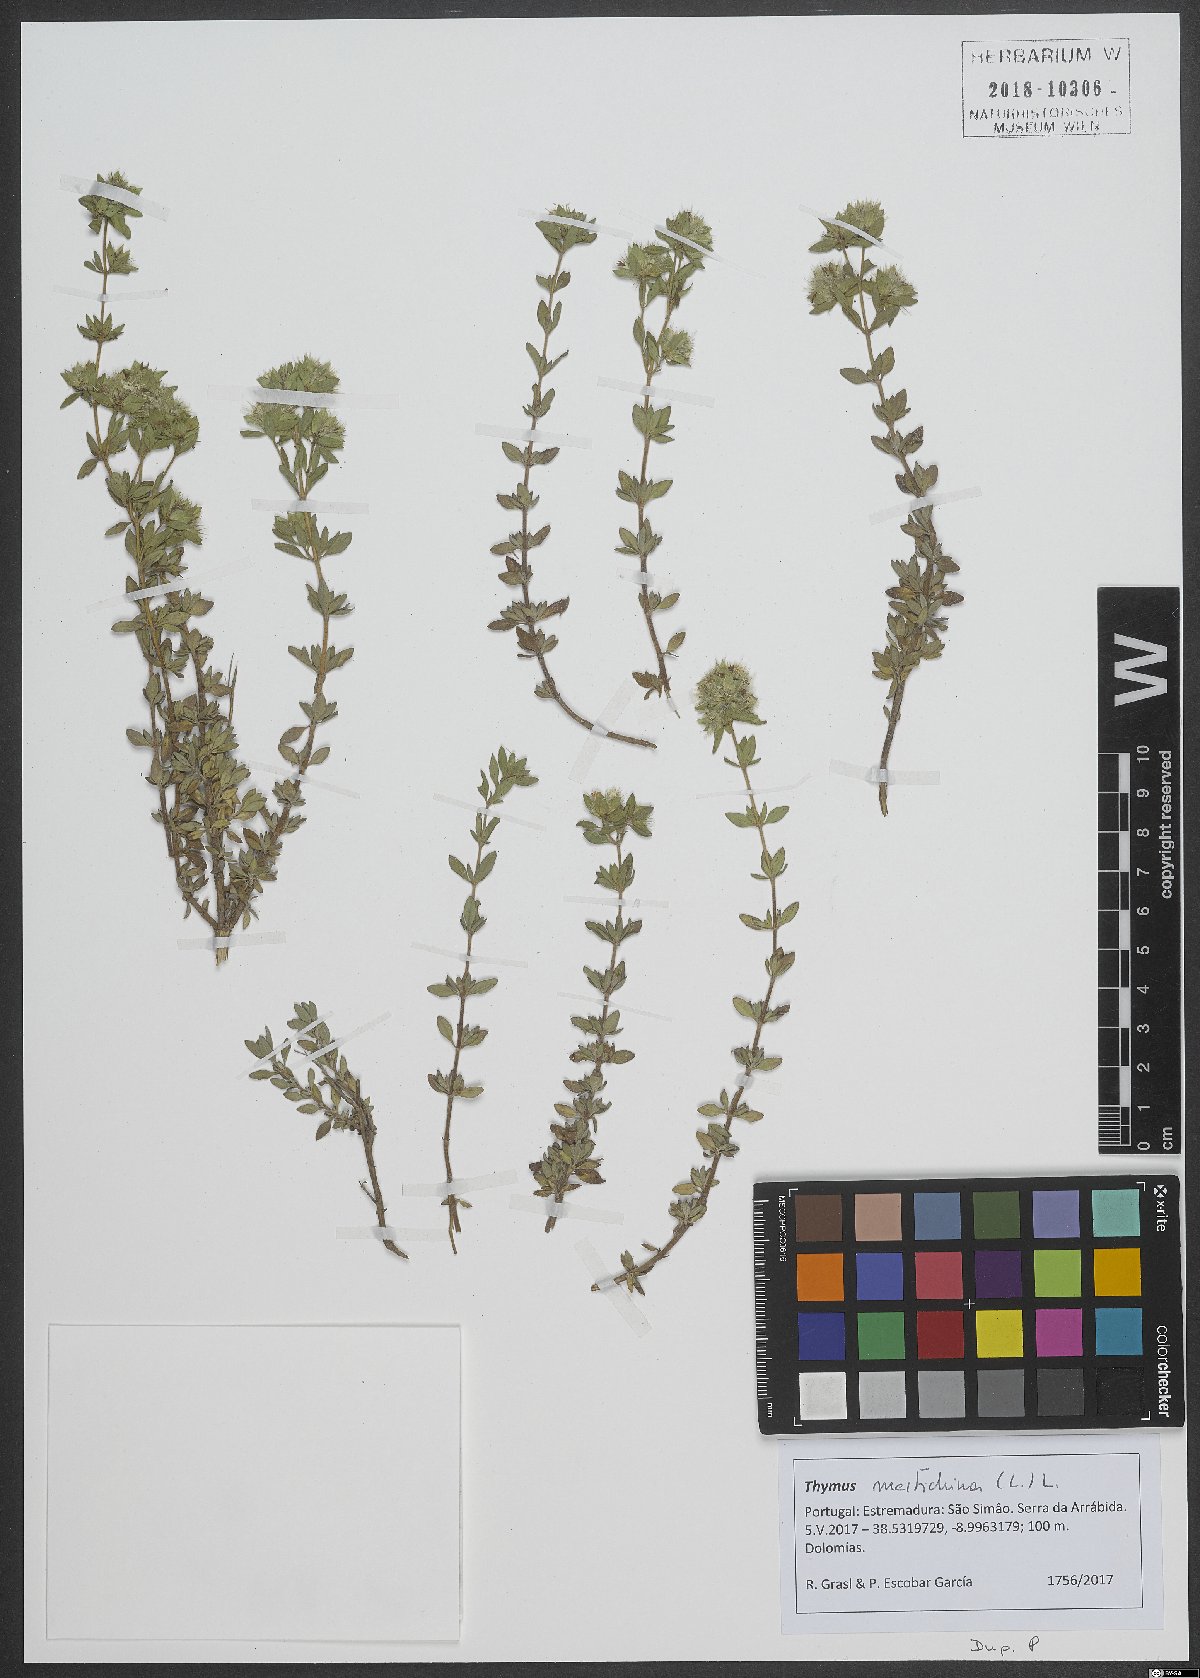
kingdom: Plantae
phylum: Tracheophyta
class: Magnoliopsida
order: Lamiales
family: Lamiaceae
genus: Thymus
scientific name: Thymus mastichina
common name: Mastic thyme
